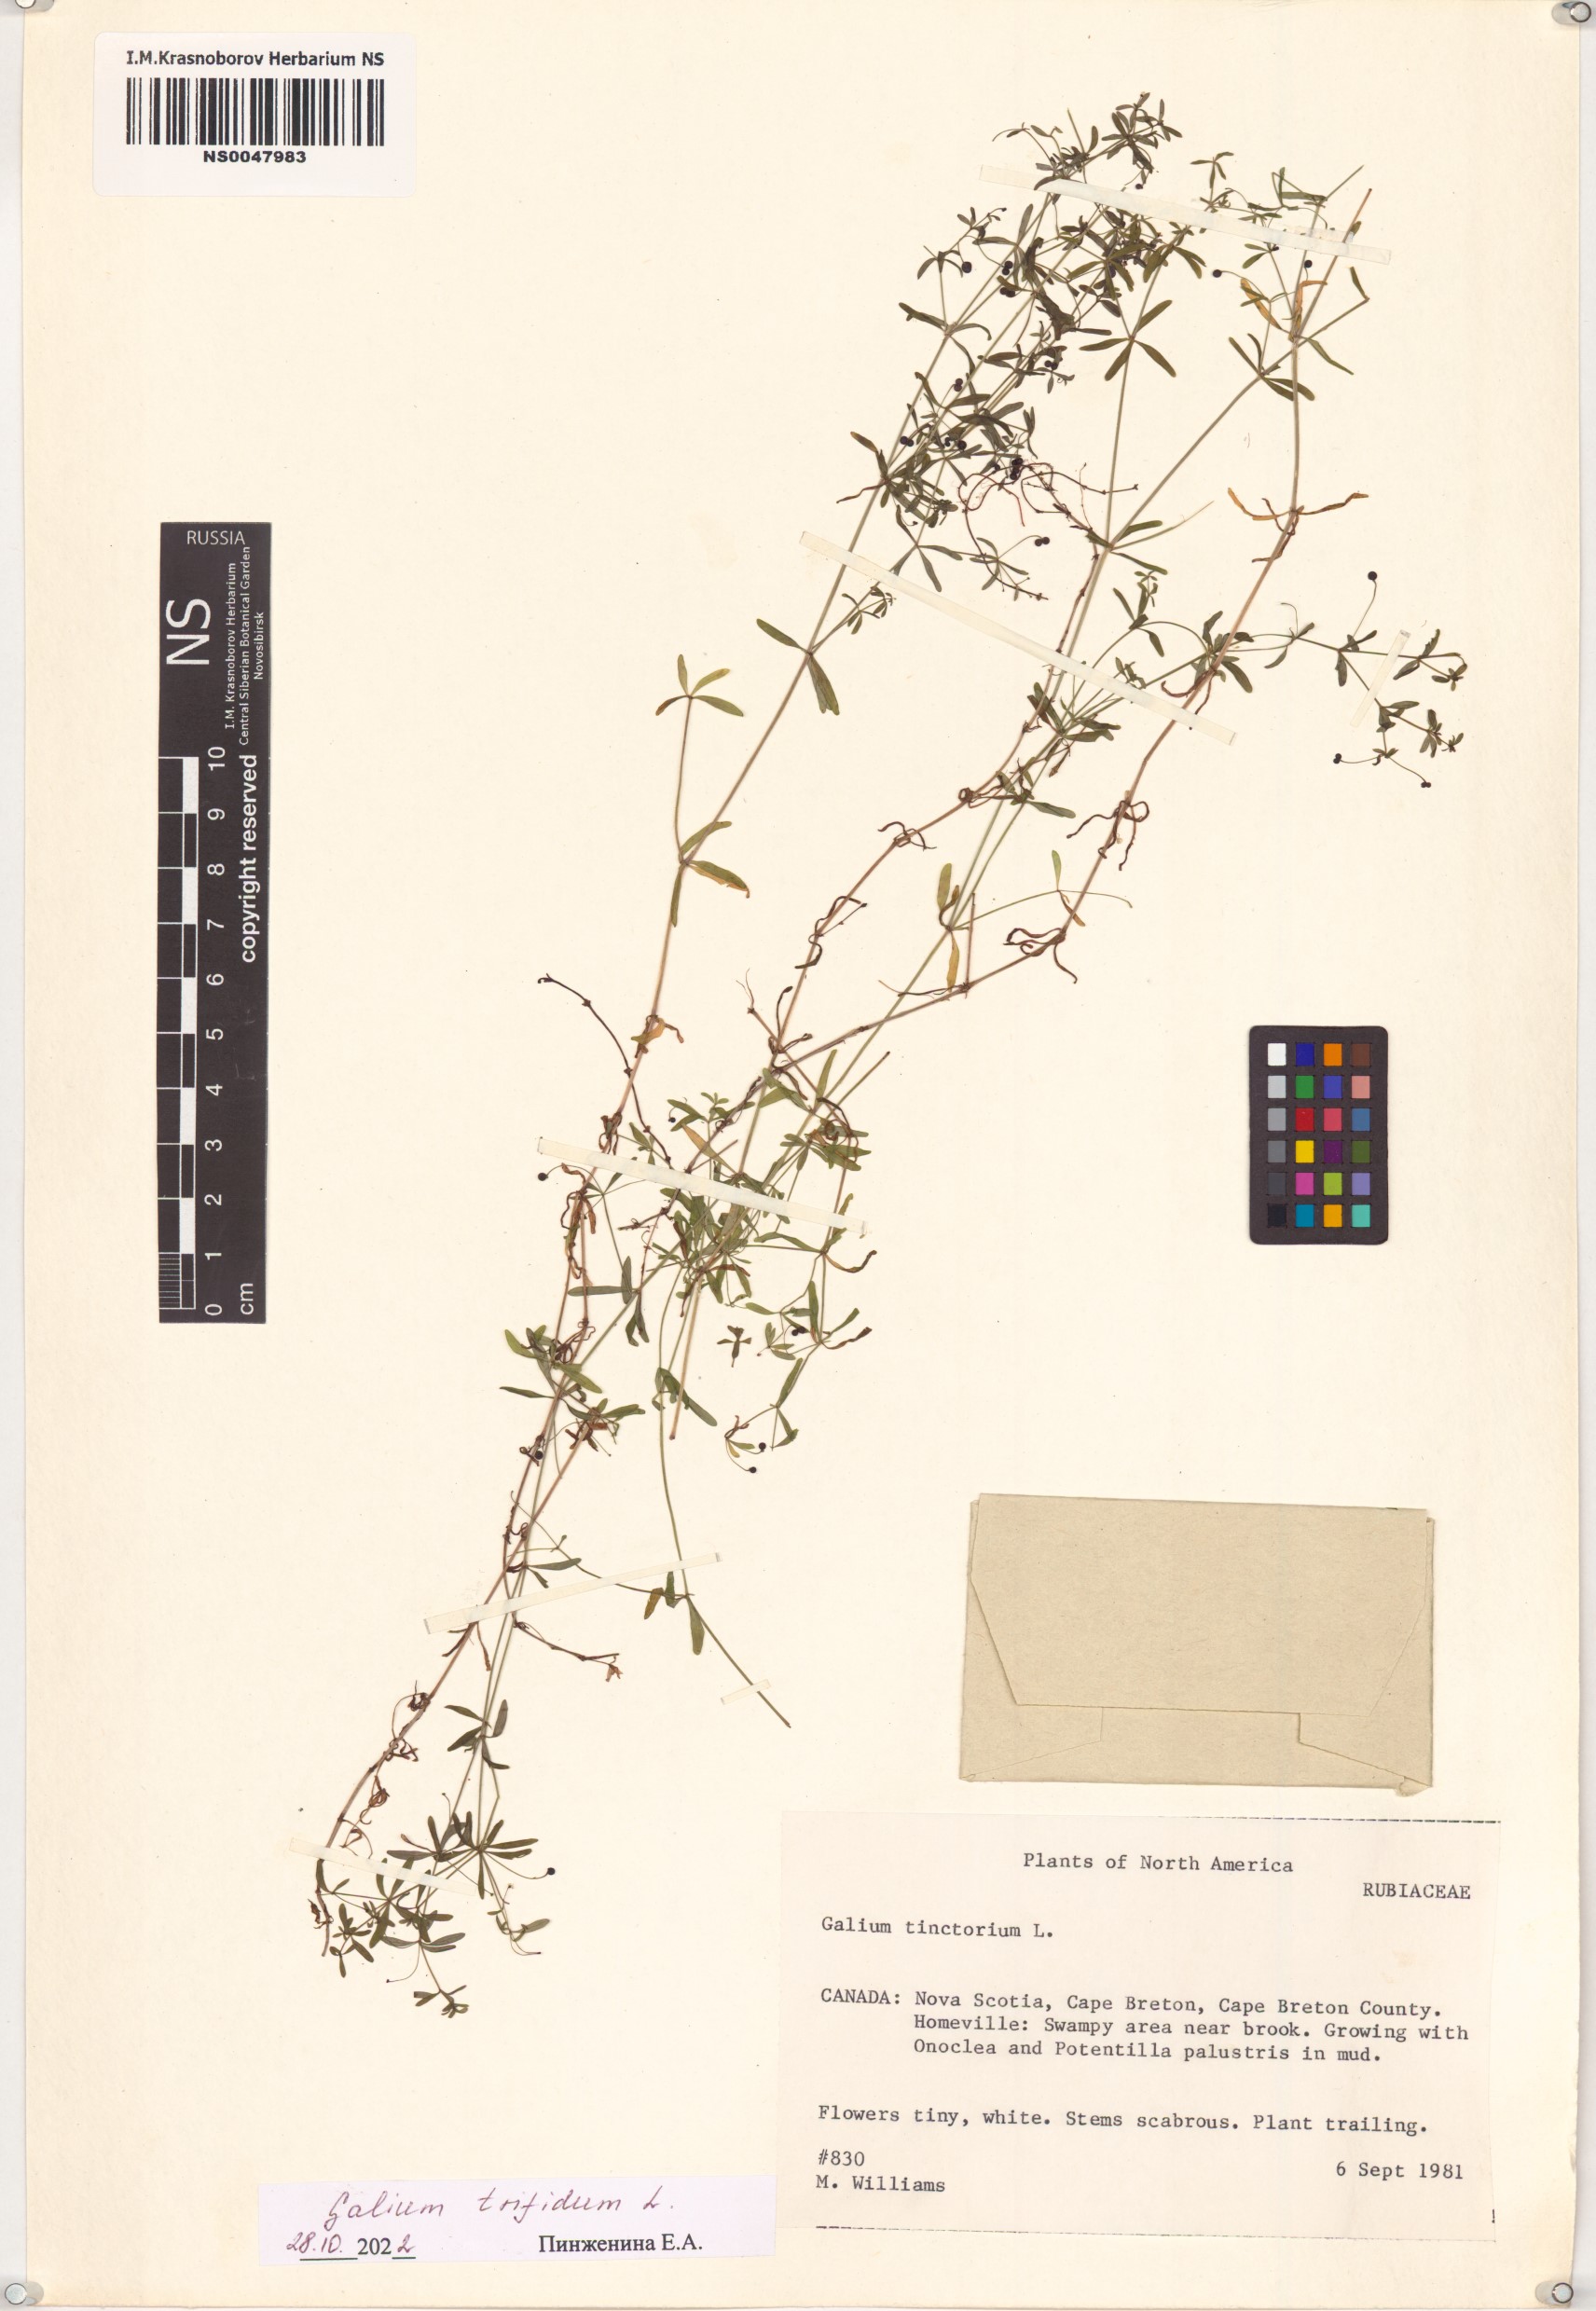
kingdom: Plantae
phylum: Tracheophyta
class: Magnoliopsida
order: Gentianales
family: Rubiaceae
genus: Galium
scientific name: Galium trifidum
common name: Small bedstraw
